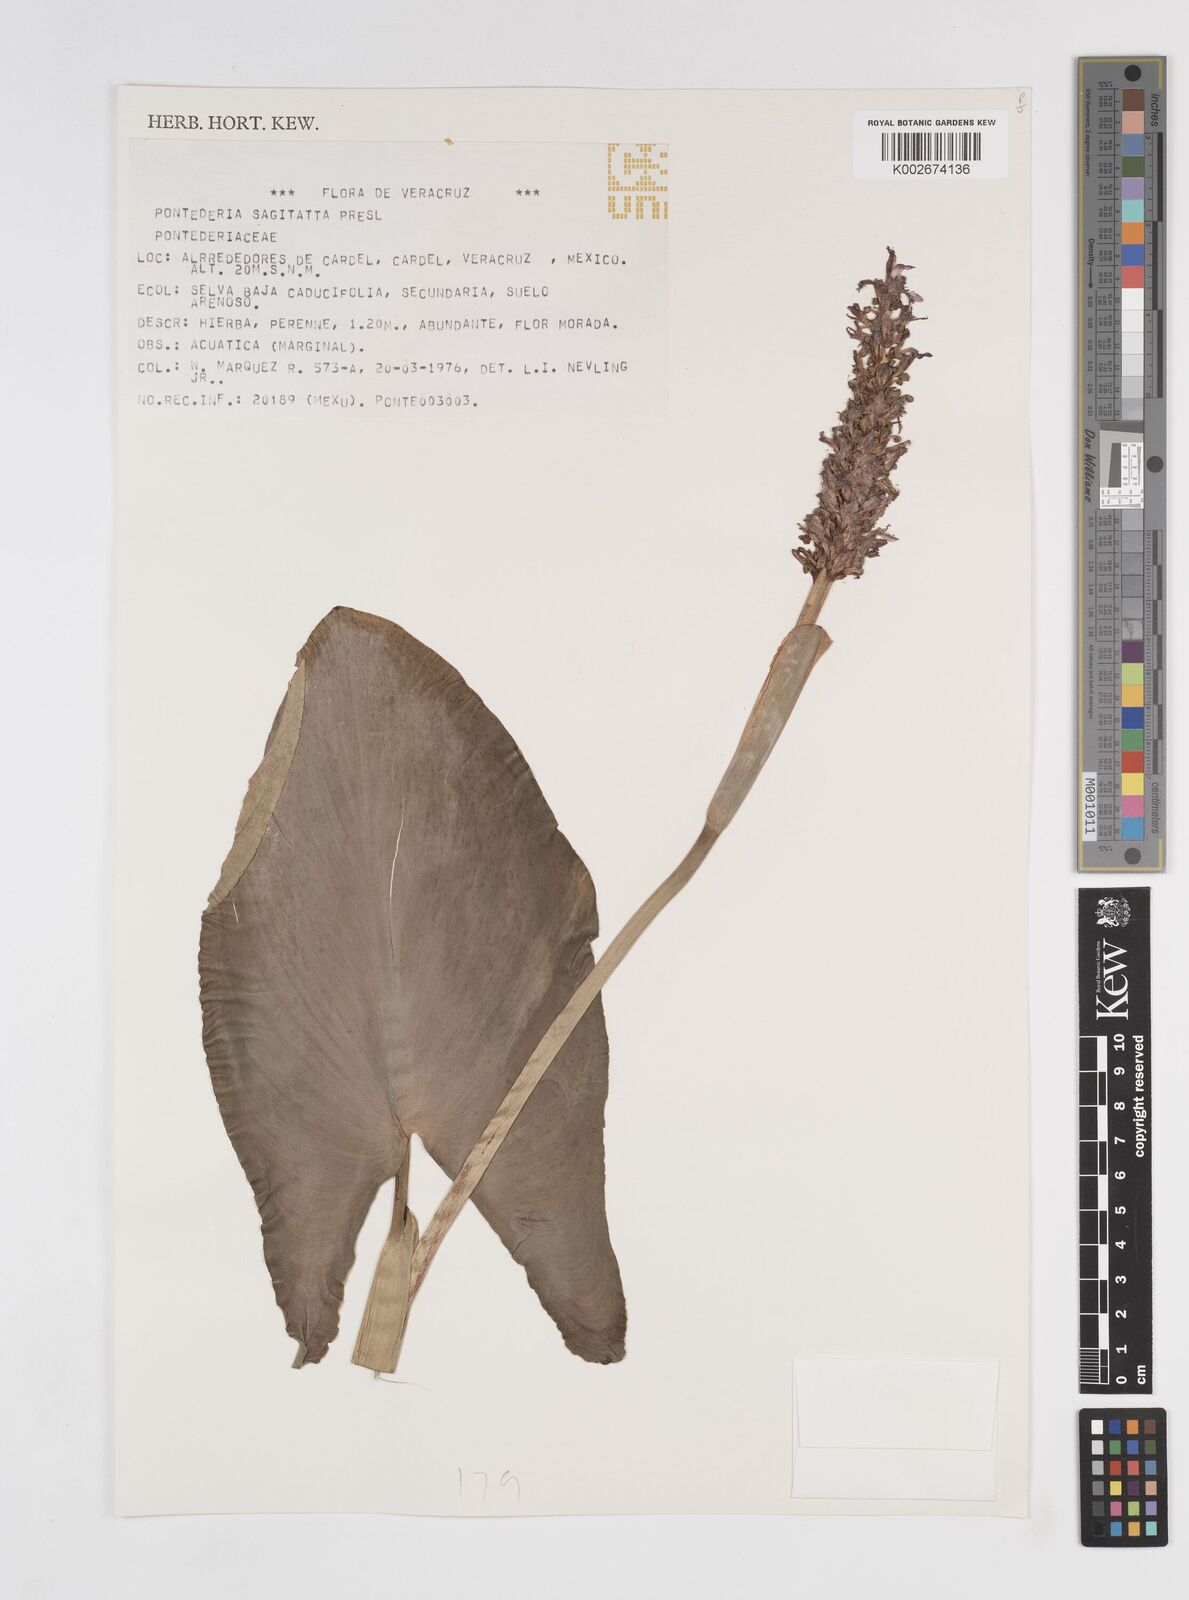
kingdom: Plantae
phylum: Tracheophyta
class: Liliopsida
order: Commelinales
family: Pontederiaceae
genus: Pontederia
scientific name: Pontederia sagittata
